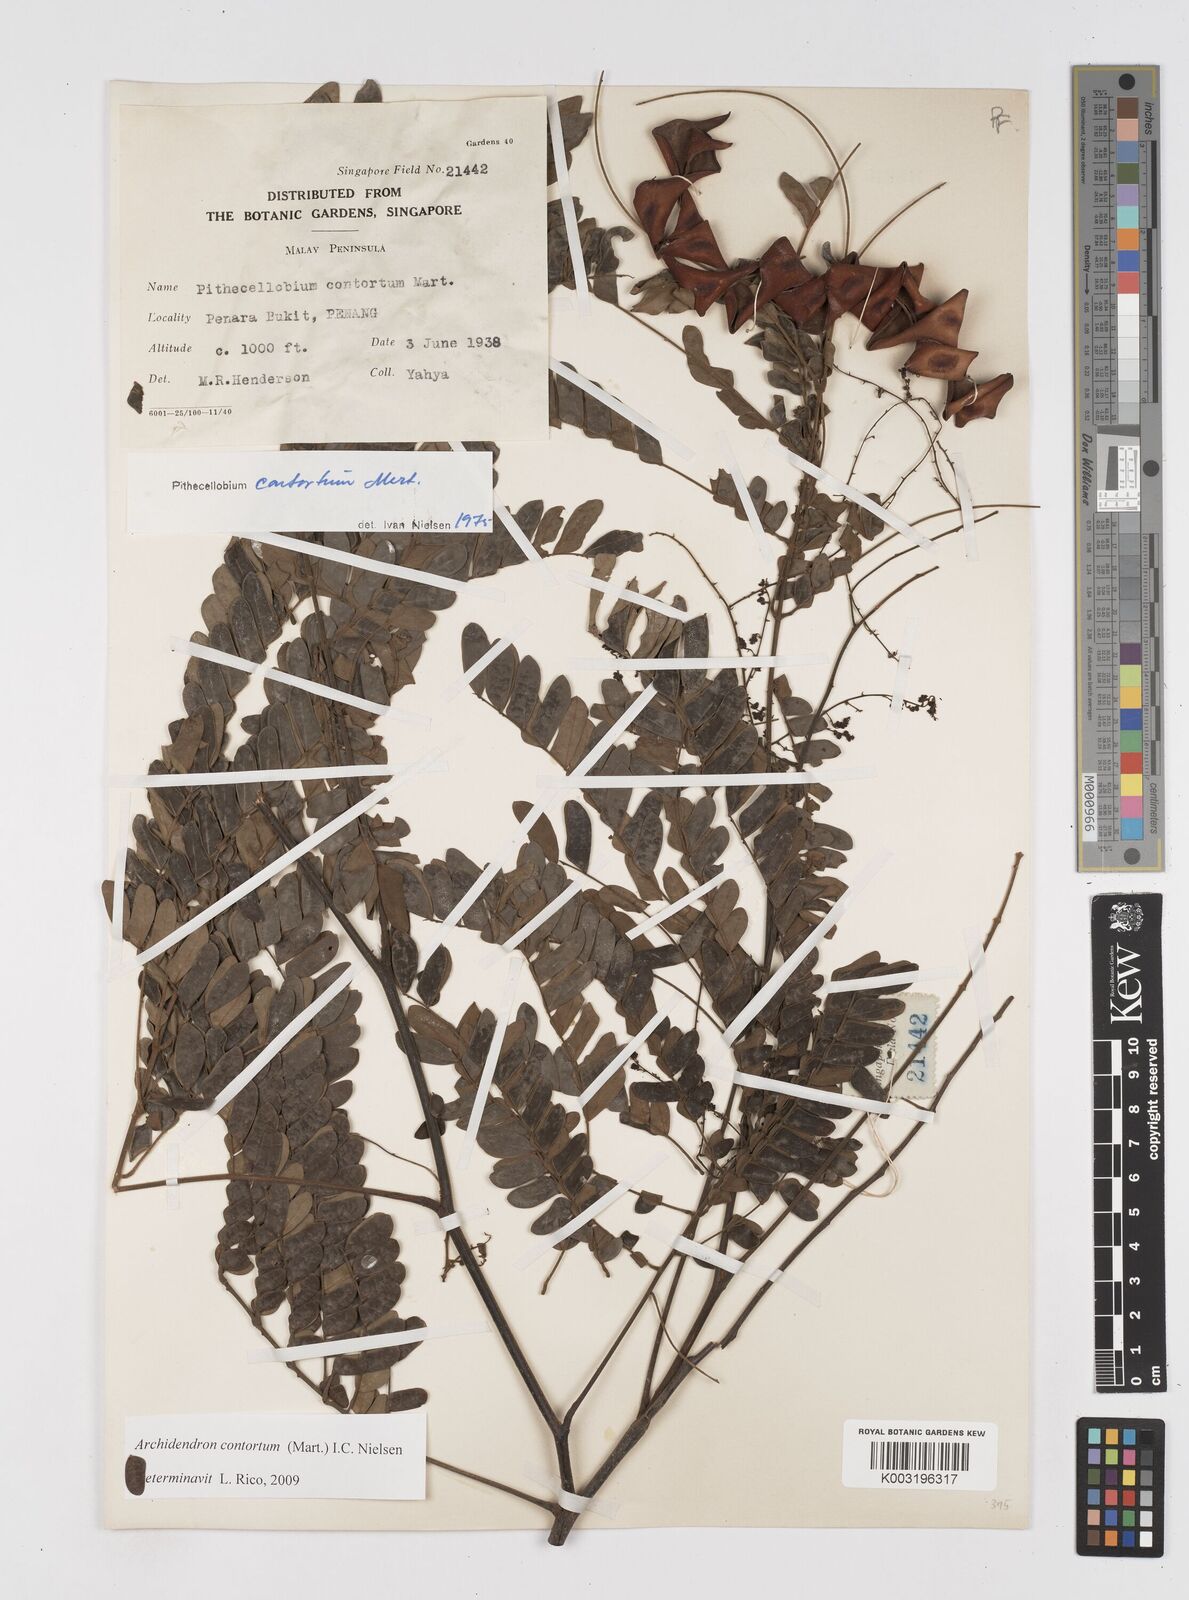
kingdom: Plantae
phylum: Tracheophyta
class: Magnoliopsida
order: Fabales
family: Fabaceae
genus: Archidendron
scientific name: Archidendron contortum
